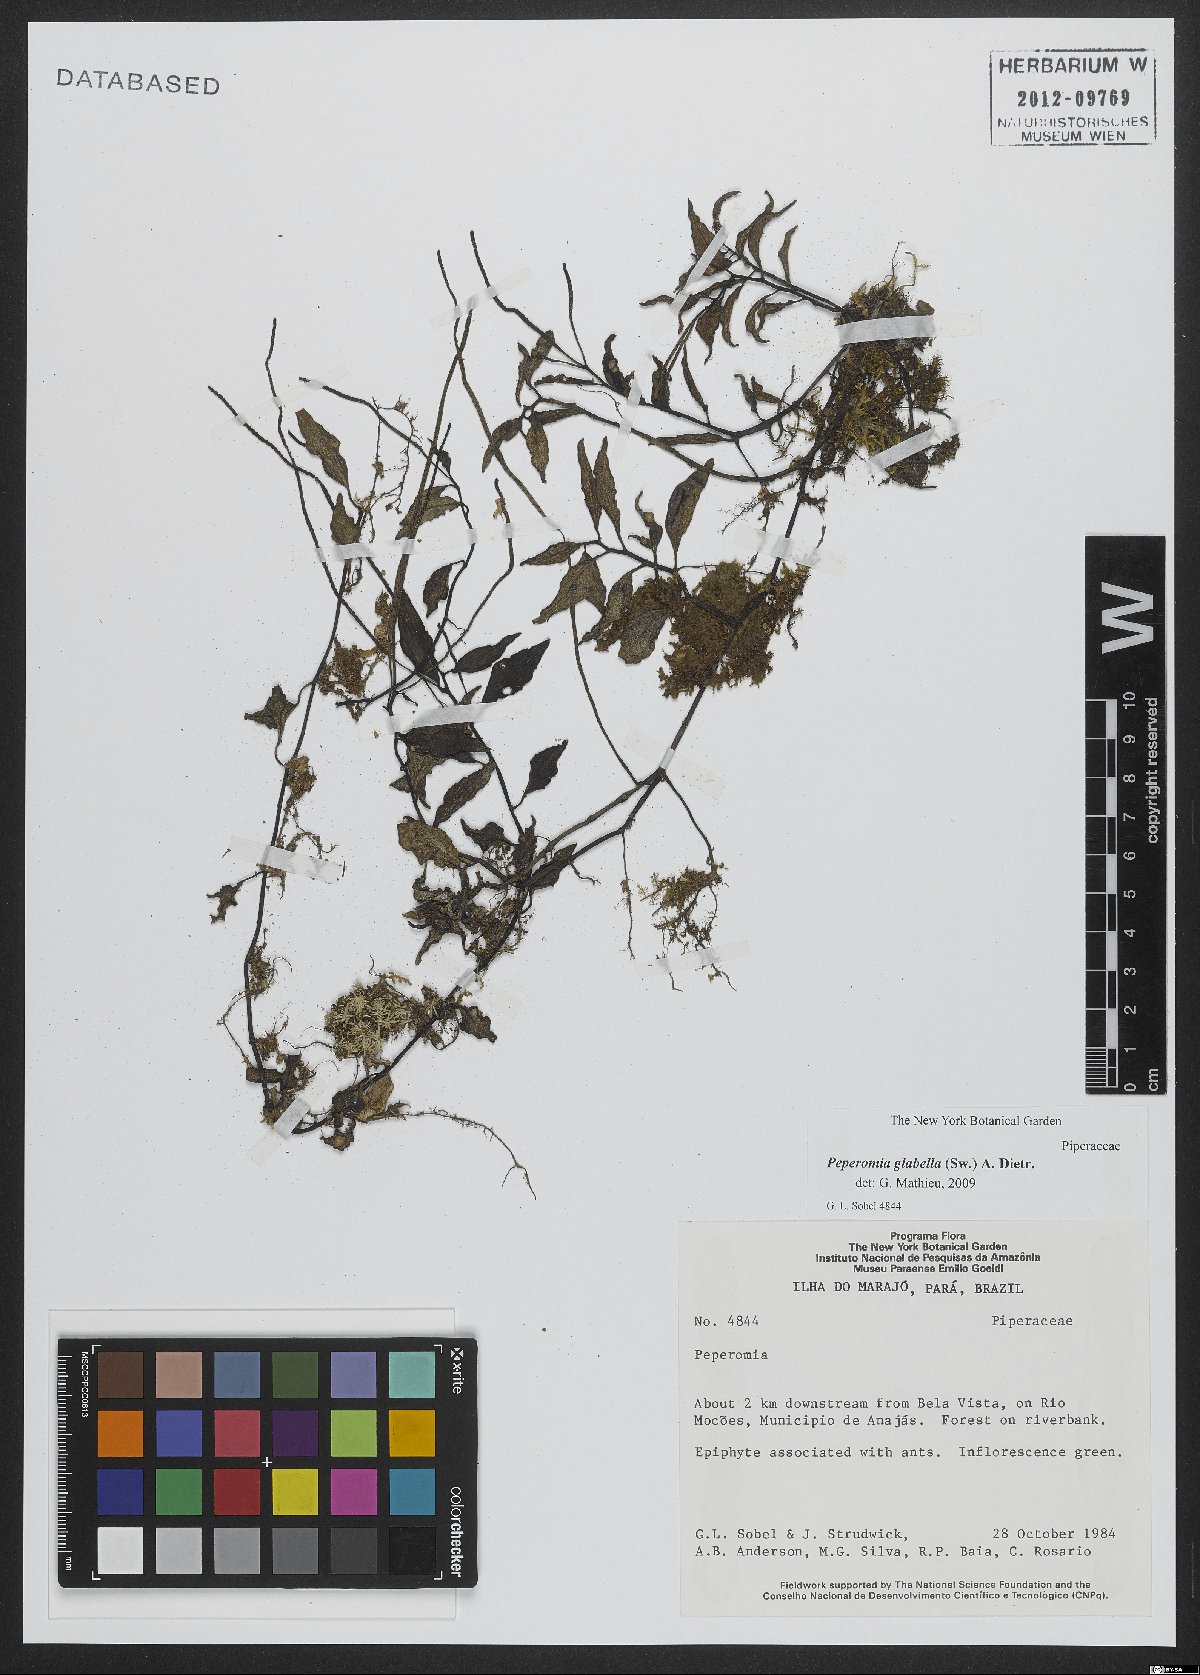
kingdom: Plantae
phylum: Tracheophyta
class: Magnoliopsida
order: Piperales
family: Piperaceae
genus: Peperomia
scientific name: Peperomia glabella
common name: Cypress peperomia
